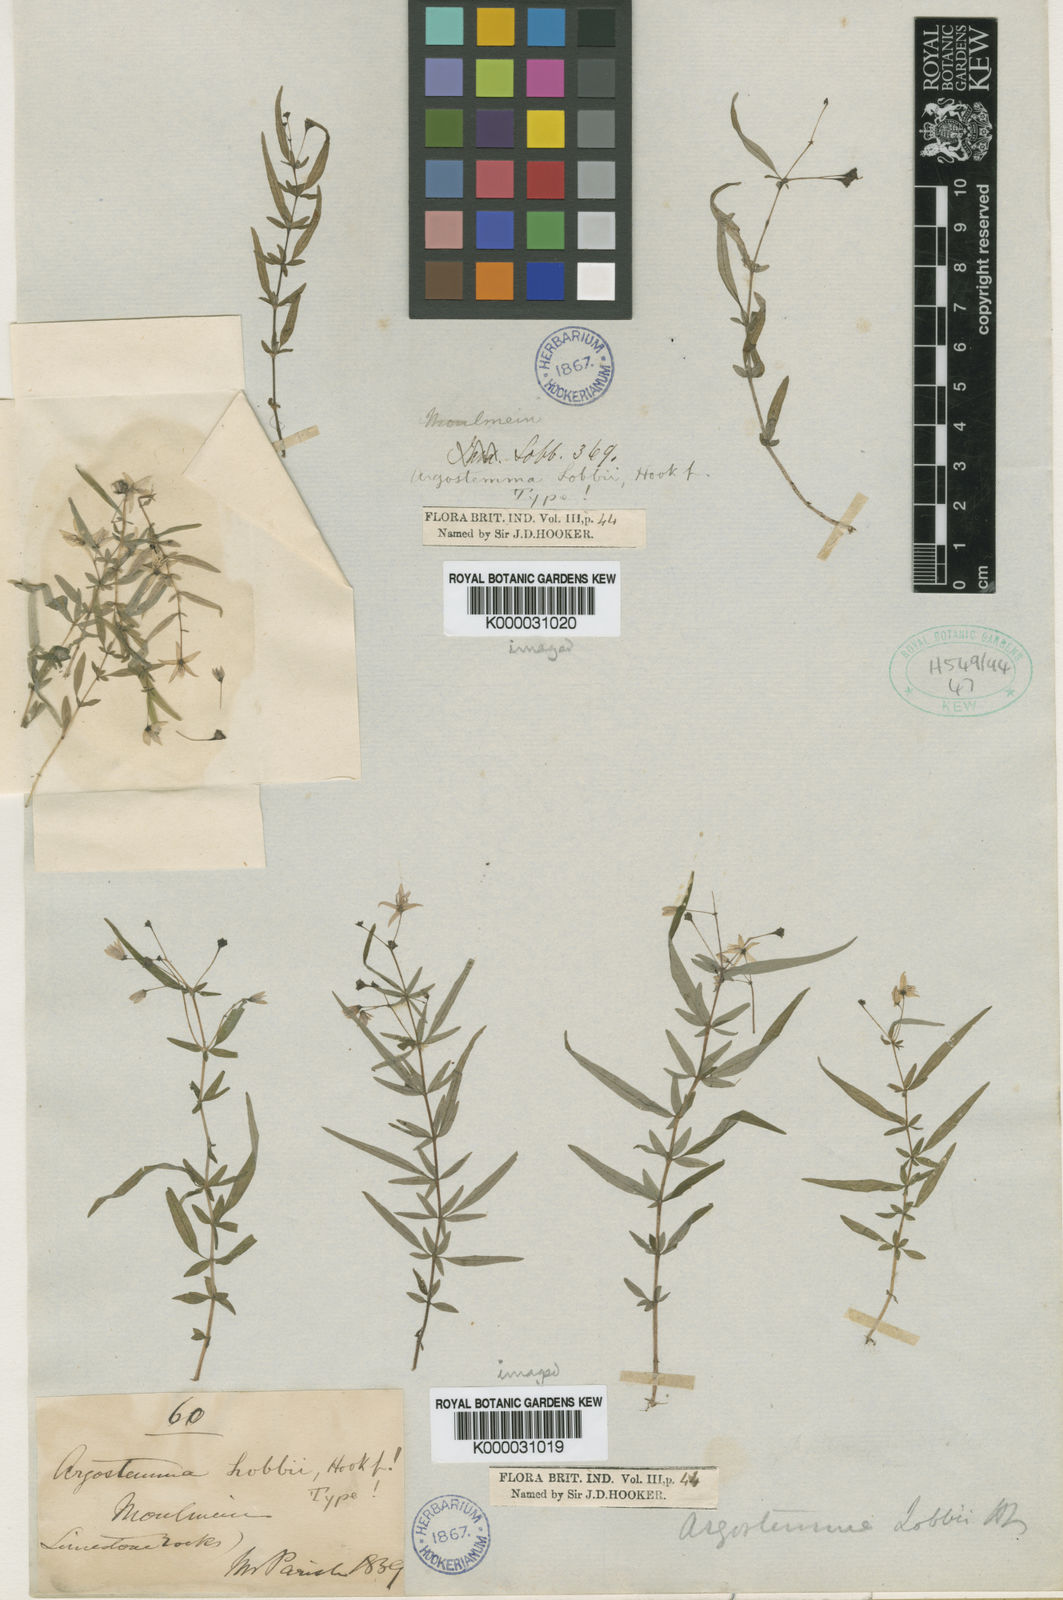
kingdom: Plantae
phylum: Tracheophyta
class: Magnoliopsida
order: Gentianales
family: Rubiaceae
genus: Argostemma
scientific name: Argostemma lobbii
